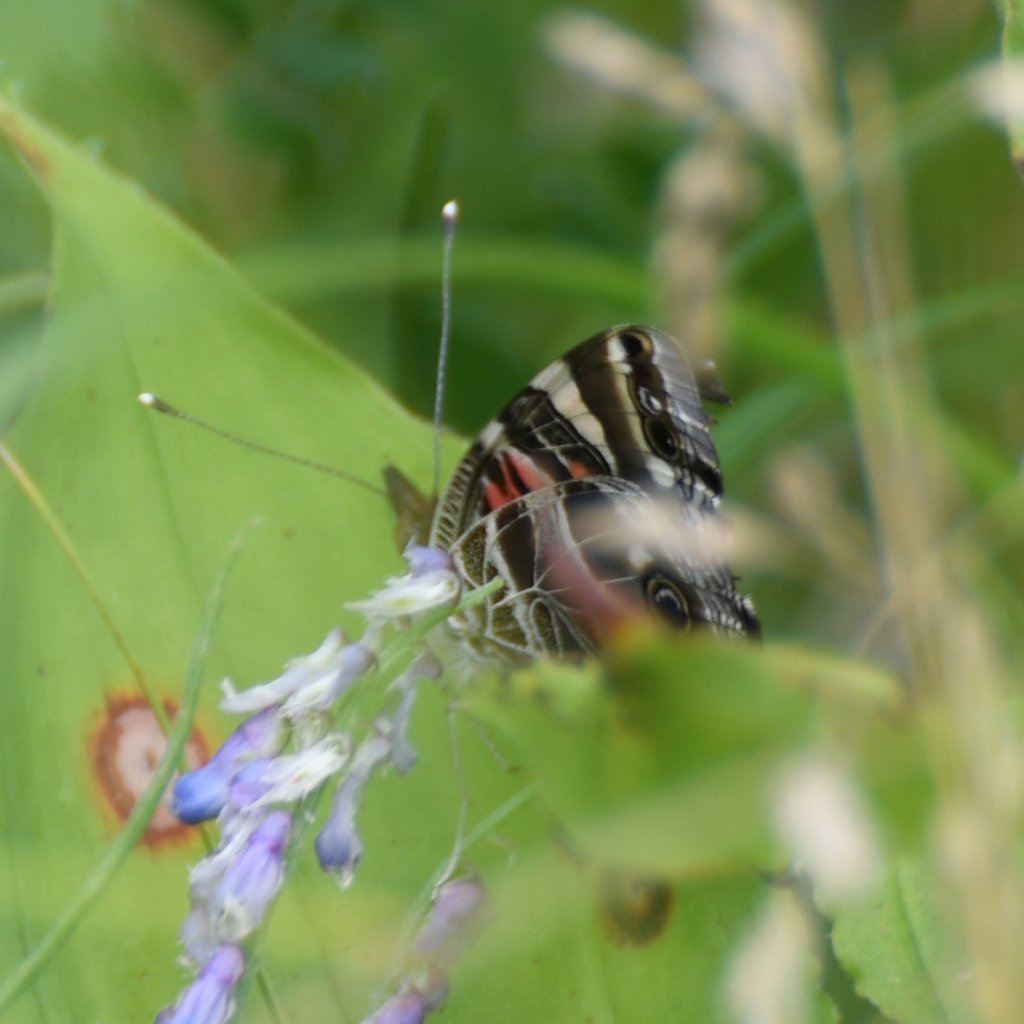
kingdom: Animalia
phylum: Arthropoda
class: Insecta
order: Lepidoptera
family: Nymphalidae
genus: Vanessa
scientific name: Vanessa virginiensis
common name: American Lady
